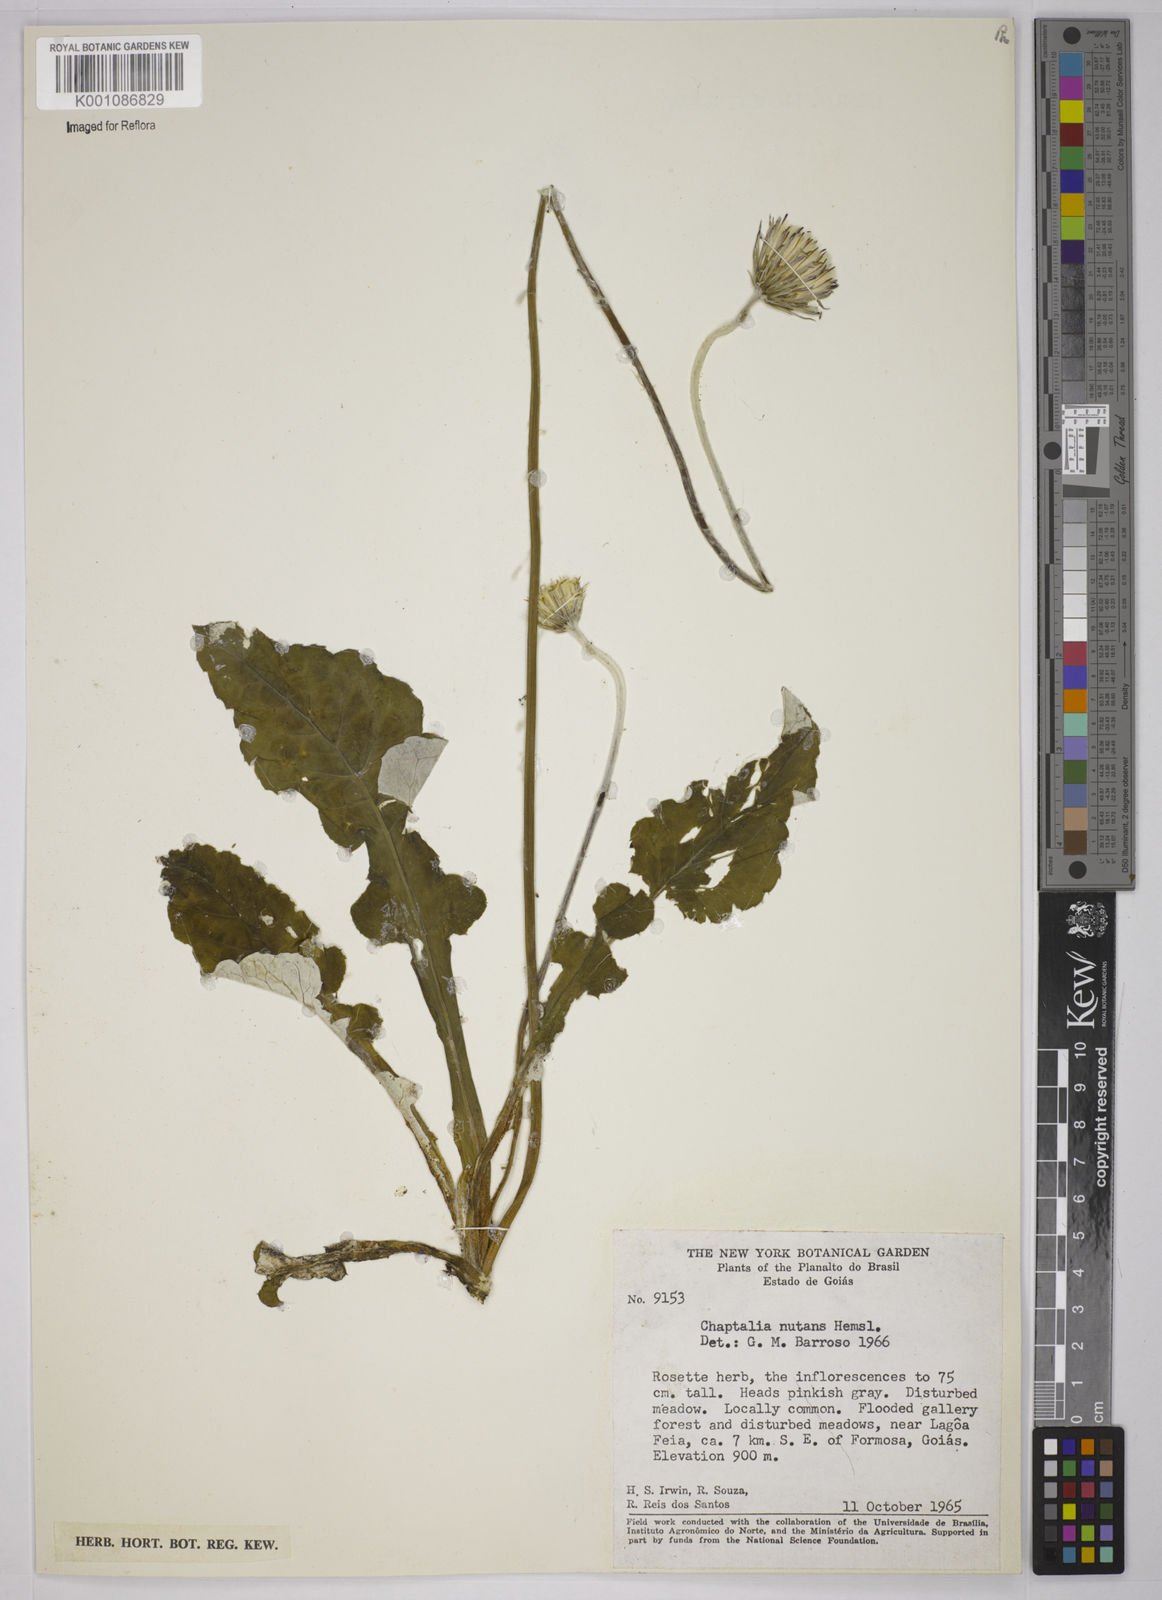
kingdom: Plantae
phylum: Tracheophyta
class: Magnoliopsida
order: Asterales
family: Asteraceae
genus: Chaptalia
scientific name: Chaptalia nutans
